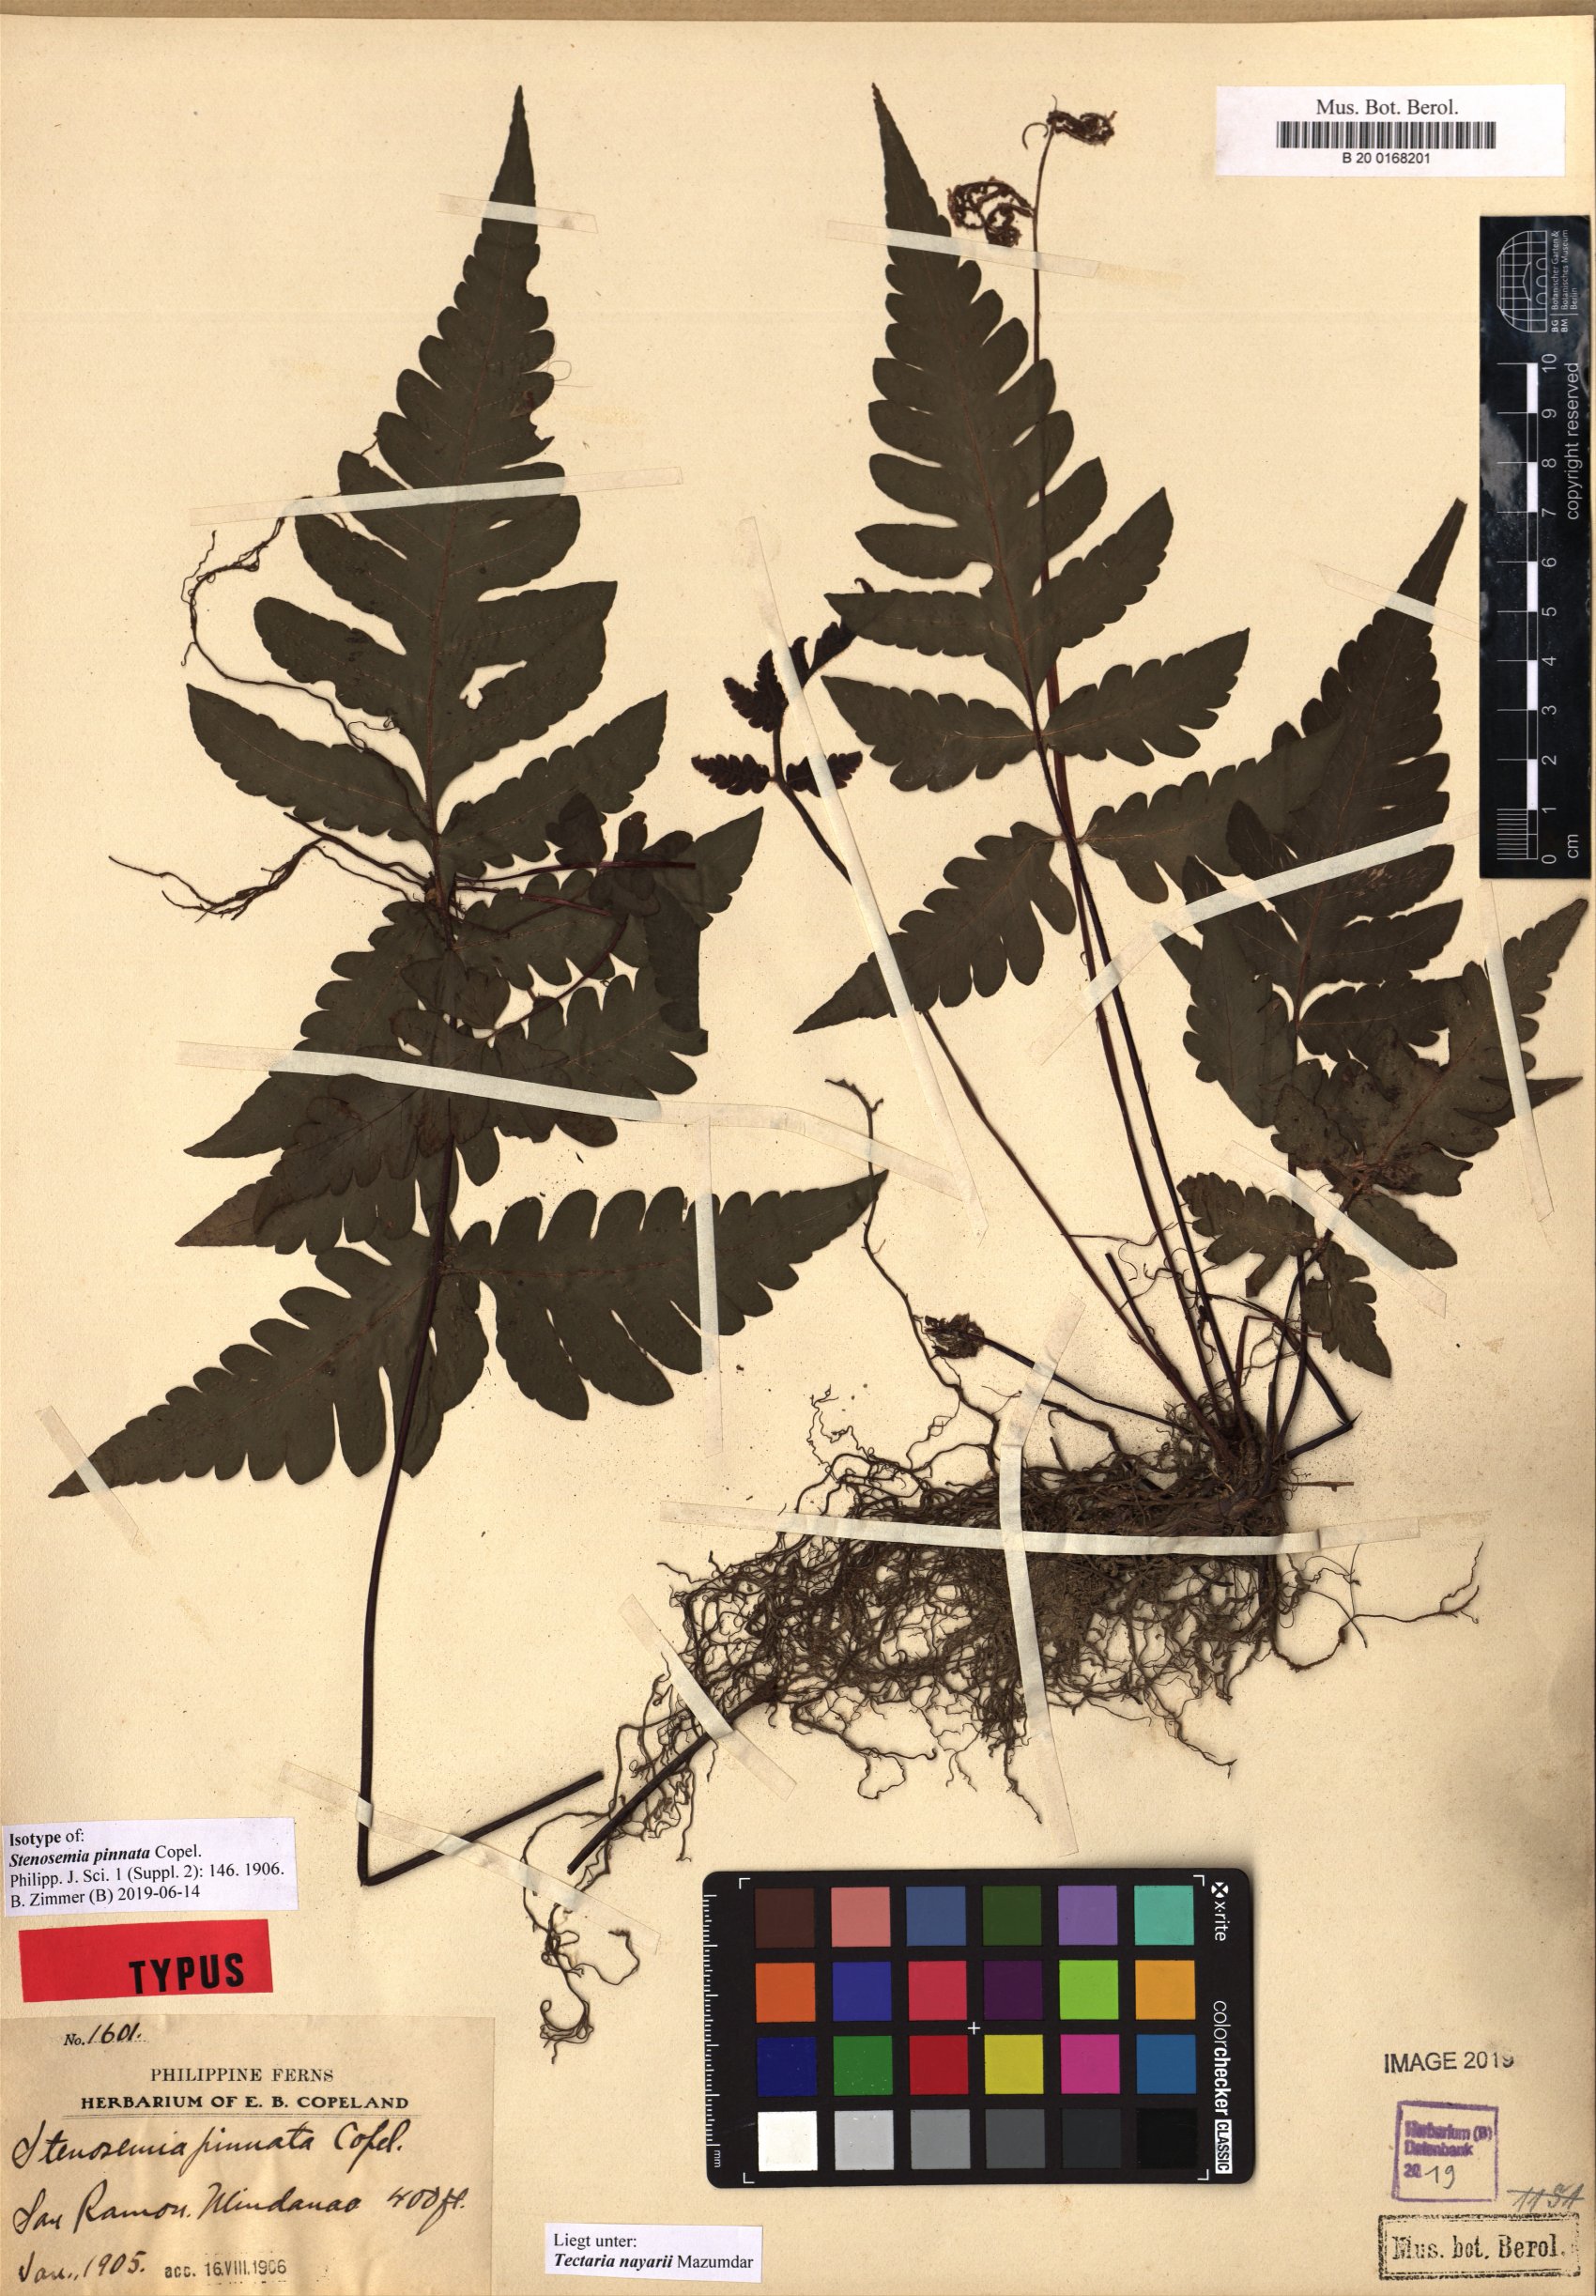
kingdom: Plantae
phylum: Tracheophyta
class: Polypodiopsida
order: Polypodiales
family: Tectariaceae
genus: Tectaria
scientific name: Tectaria nayarii
